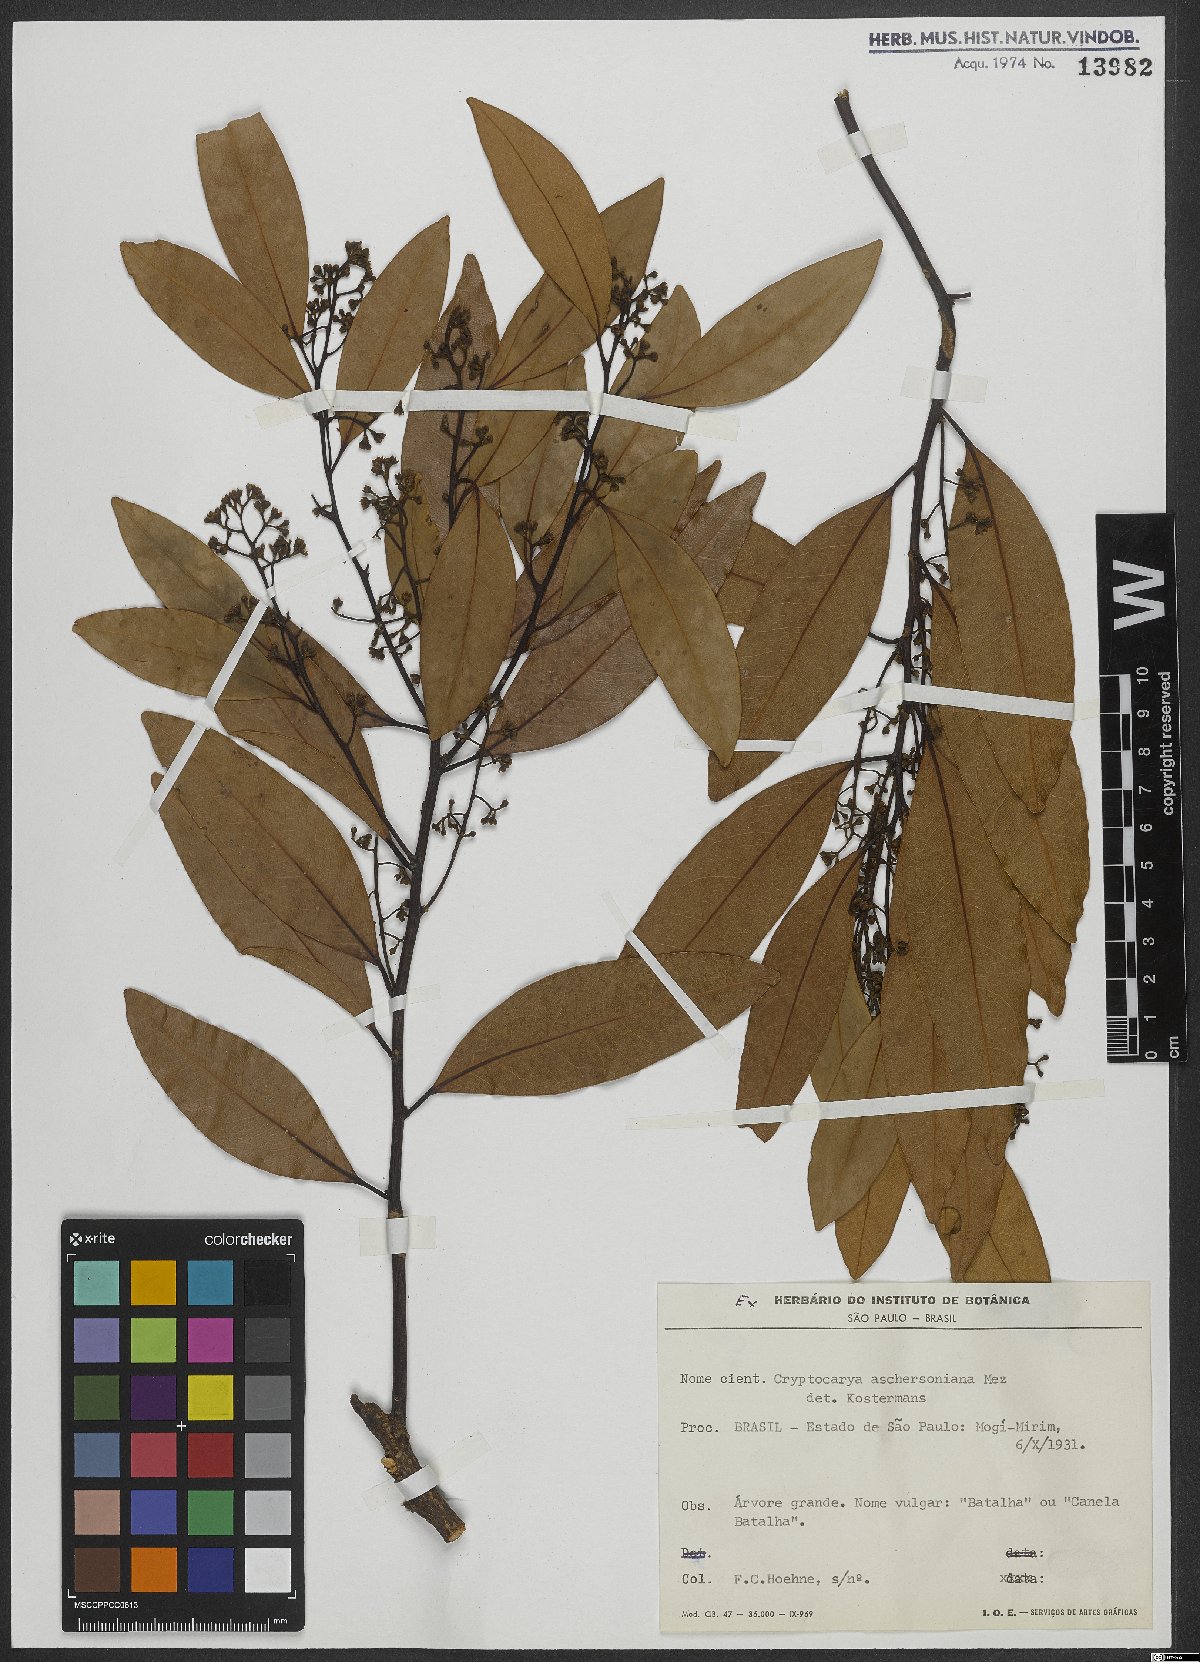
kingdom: Plantae
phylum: Tracheophyta
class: Magnoliopsida
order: Laurales
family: Lauraceae
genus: Cryptocarya
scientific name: Cryptocarya aschersoniana
